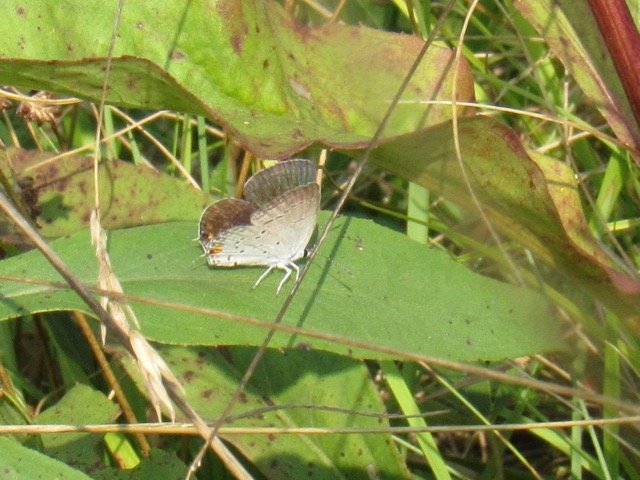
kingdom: Animalia
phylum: Arthropoda
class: Insecta
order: Lepidoptera
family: Lycaenidae
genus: Elkalyce
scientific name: Elkalyce comyntas
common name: Eastern Tailed-Blue
